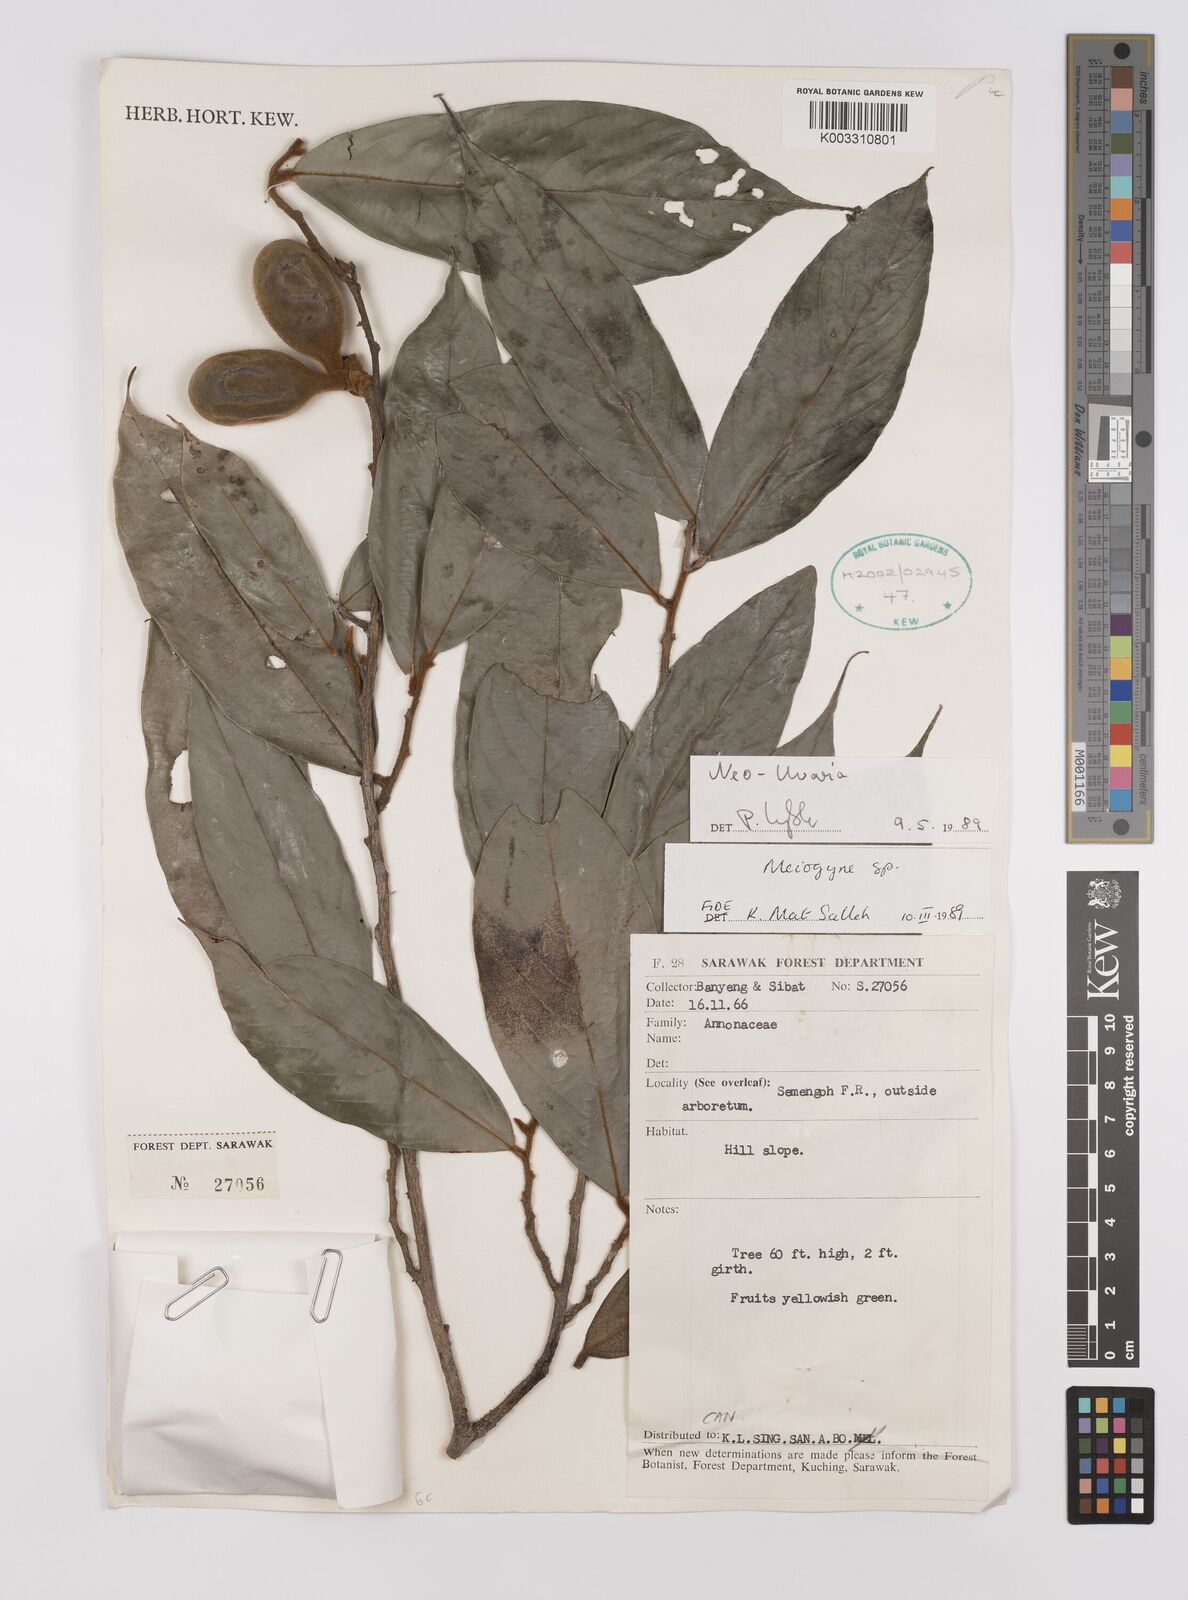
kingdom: Plantae
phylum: Tracheophyta
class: Magnoliopsida
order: Magnoliales
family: Annonaceae
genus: Neo-uvaria
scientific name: Neo-uvaria
